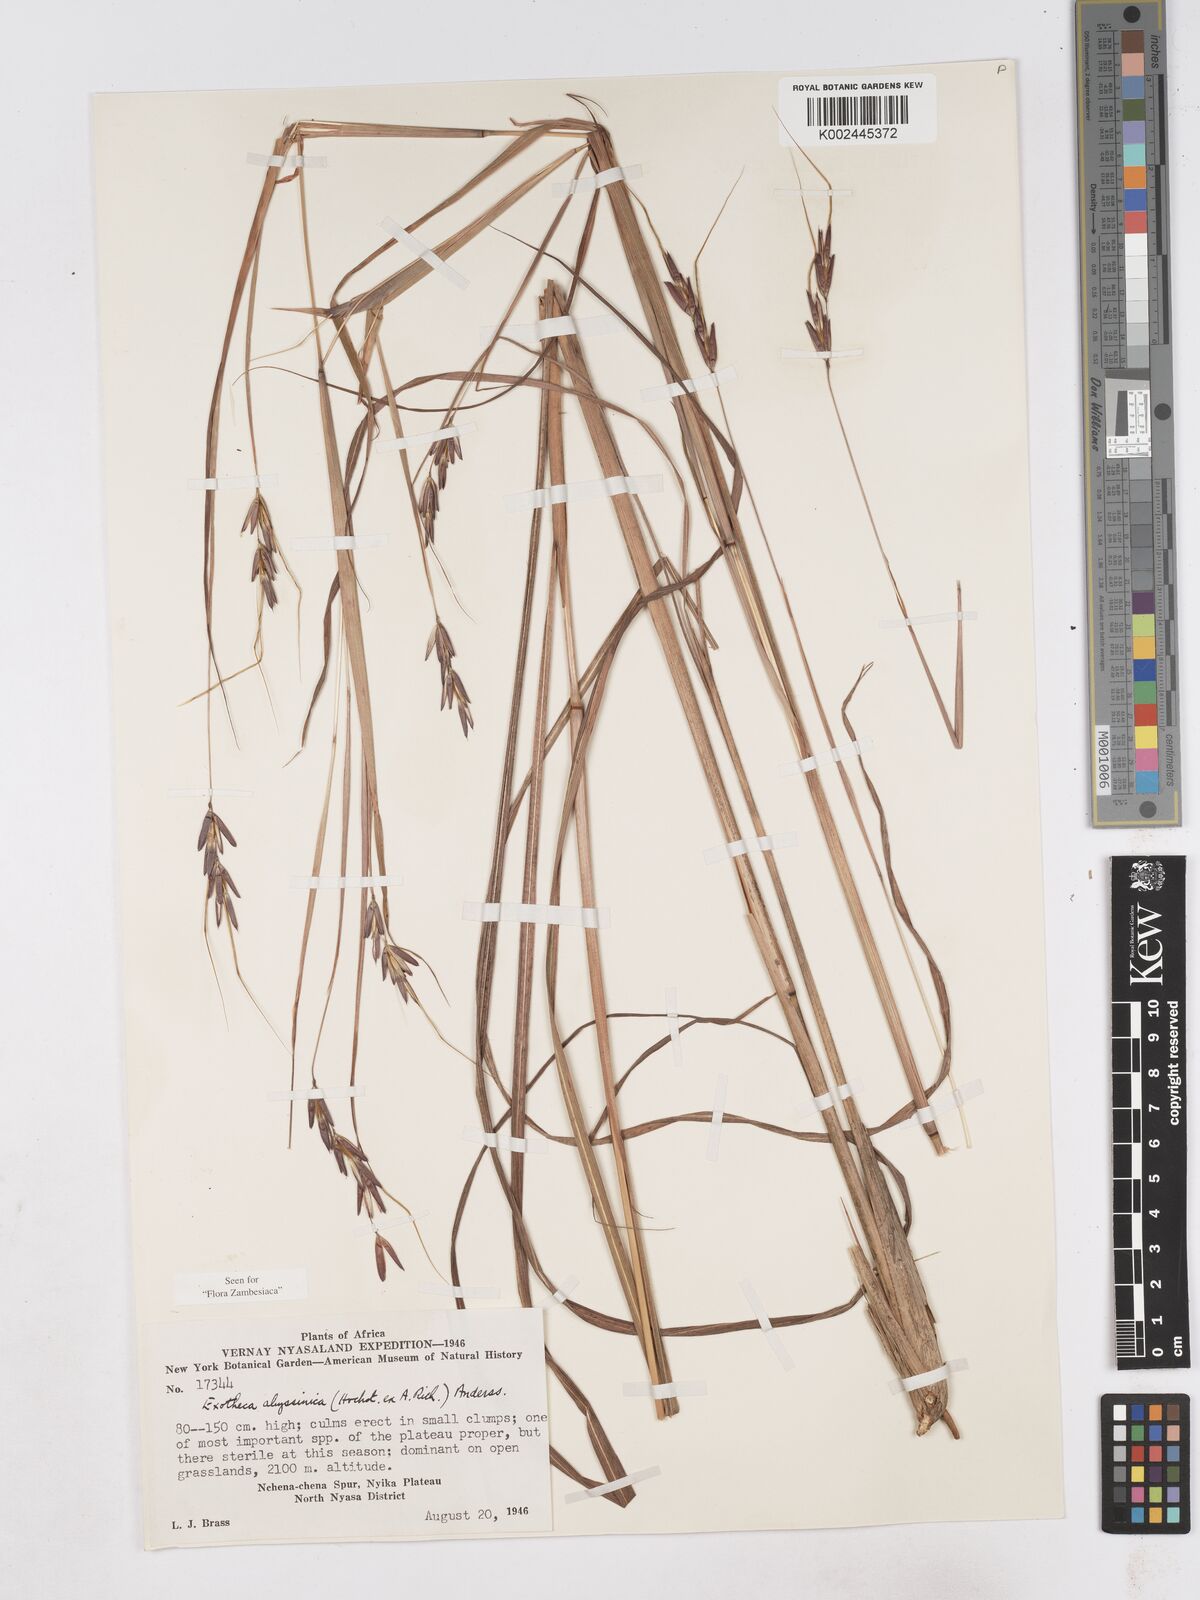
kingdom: Plantae
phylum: Tracheophyta
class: Liliopsida
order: Poales
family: Poaceae
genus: Exotheca
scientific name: Exotheca abyssinica
